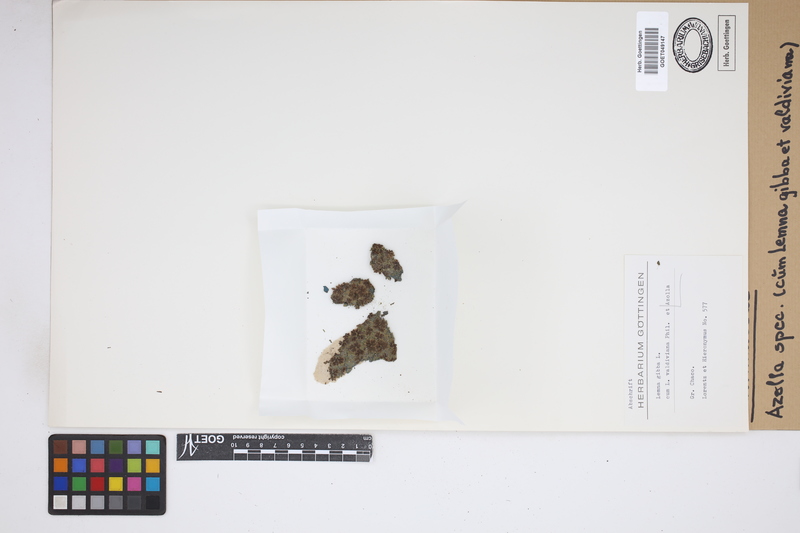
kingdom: Plantae
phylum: Tracheophyta
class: Polypodiopsida
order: Salviniales
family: Salviniaceae
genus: Azolla
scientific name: Azolla
